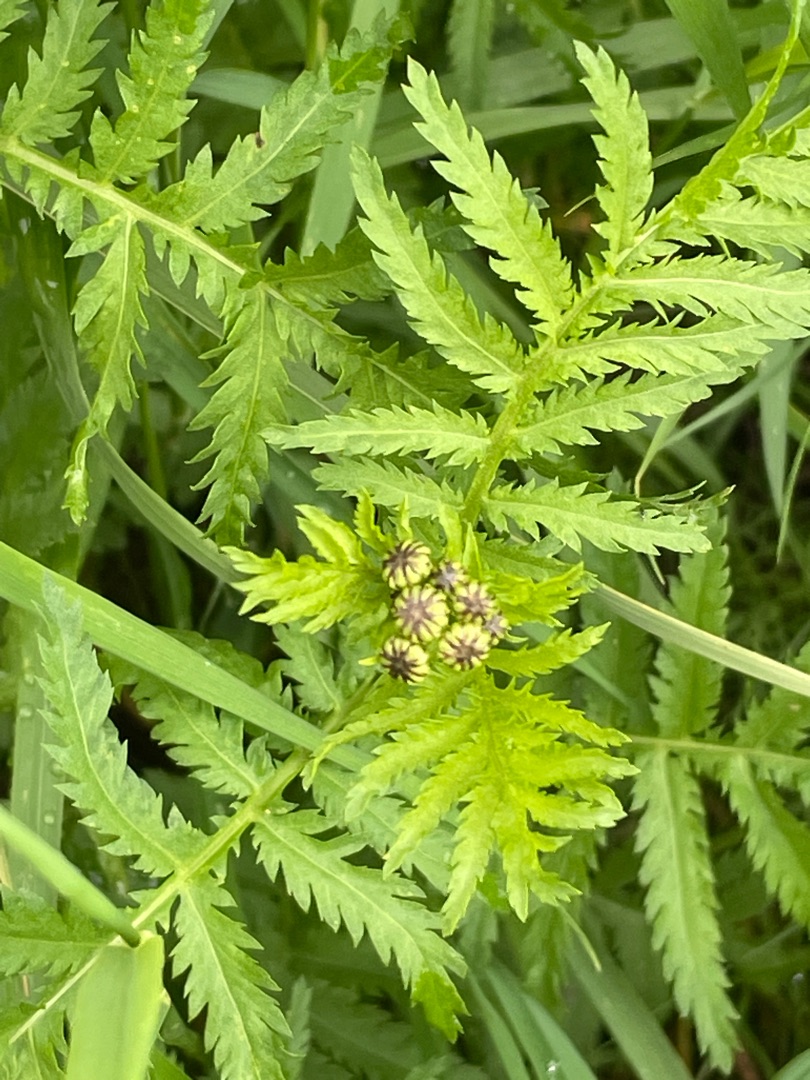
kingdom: Plantae
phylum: Tracheophyta
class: Magnoliopsida
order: Asterales
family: Asteraceae
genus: Tanacetum
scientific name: Tanacetum vulgare
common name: Rejnfan
